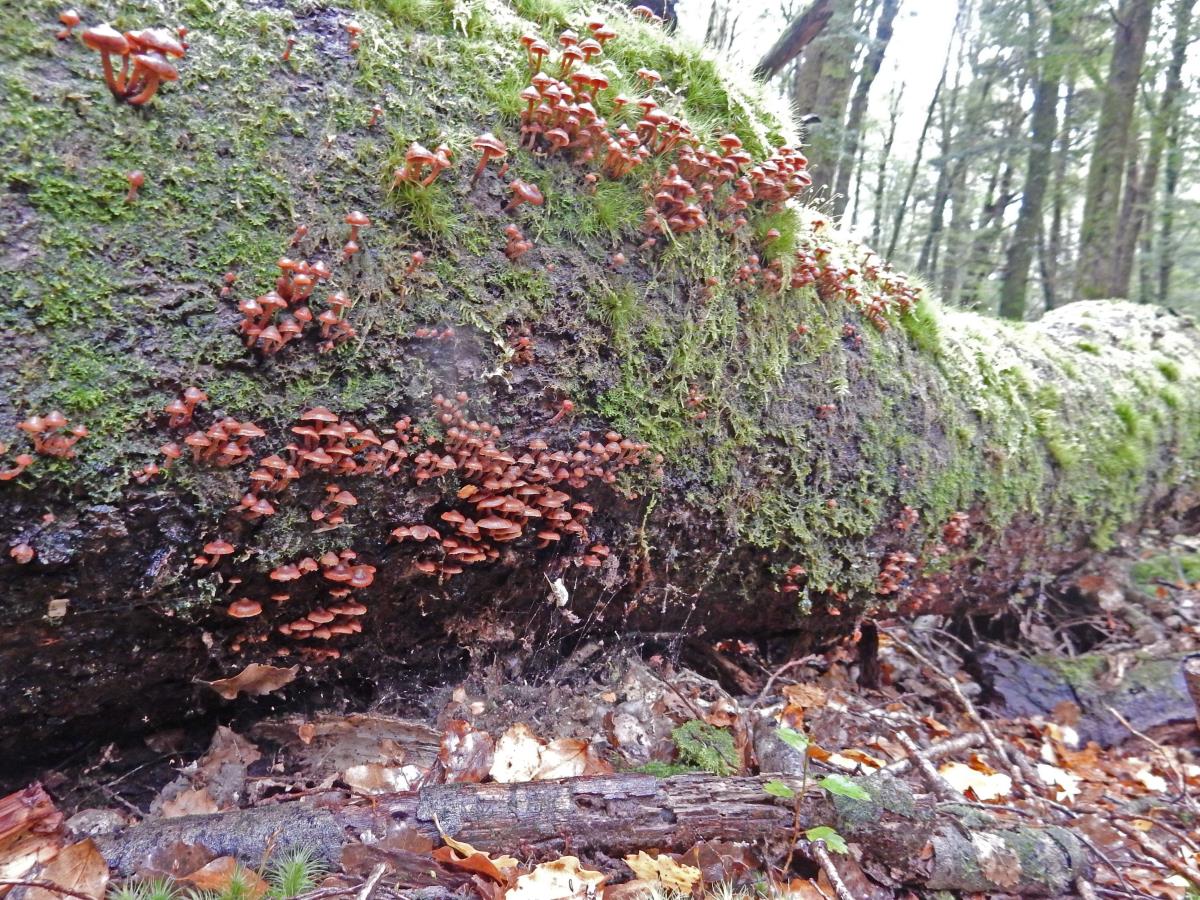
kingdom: Fungi
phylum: Basidiomycota
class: Agaricomycetes
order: Agaricales
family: Strophariaceae
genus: Kuehneromyces
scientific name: Kuehneromyces brunneoalbescens
